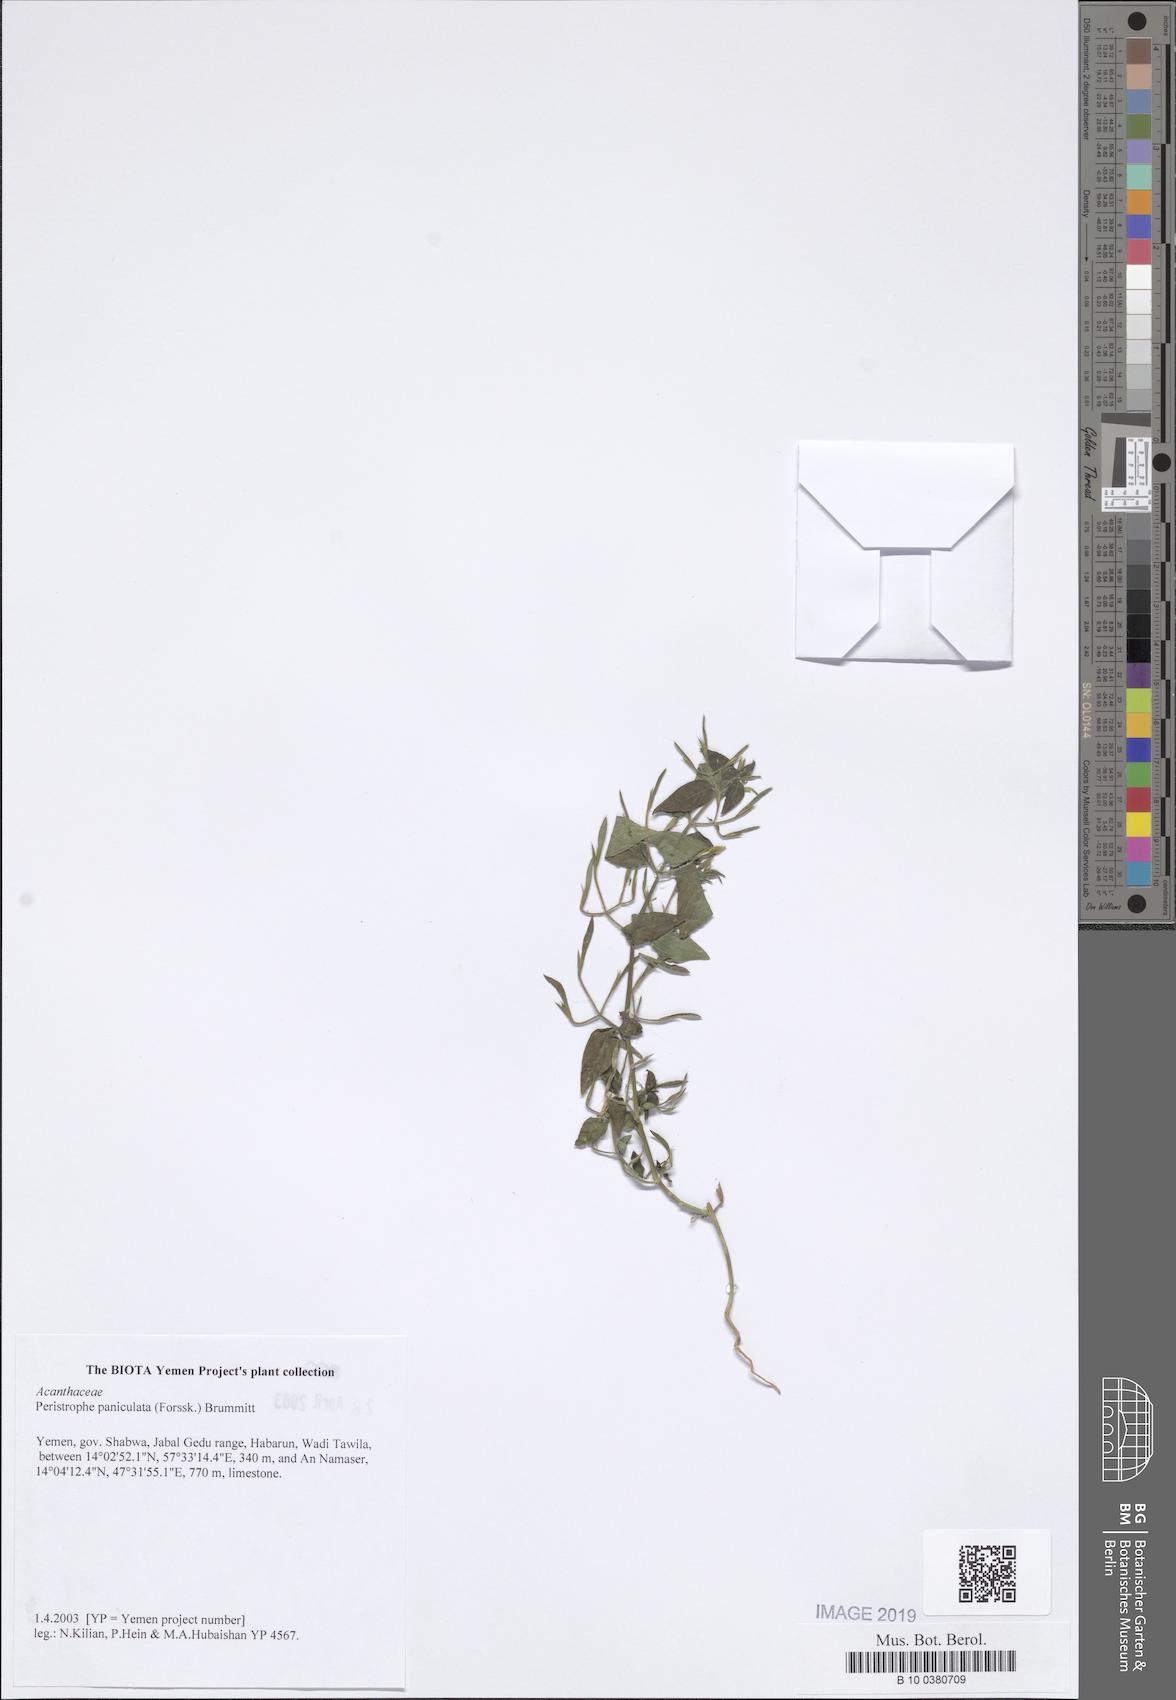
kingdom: Plantae
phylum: Tracheophyta
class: Magnoliopsida
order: Lamiales
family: Acanthaceae
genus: Dicliptera
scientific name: Dicliptera paniculata
